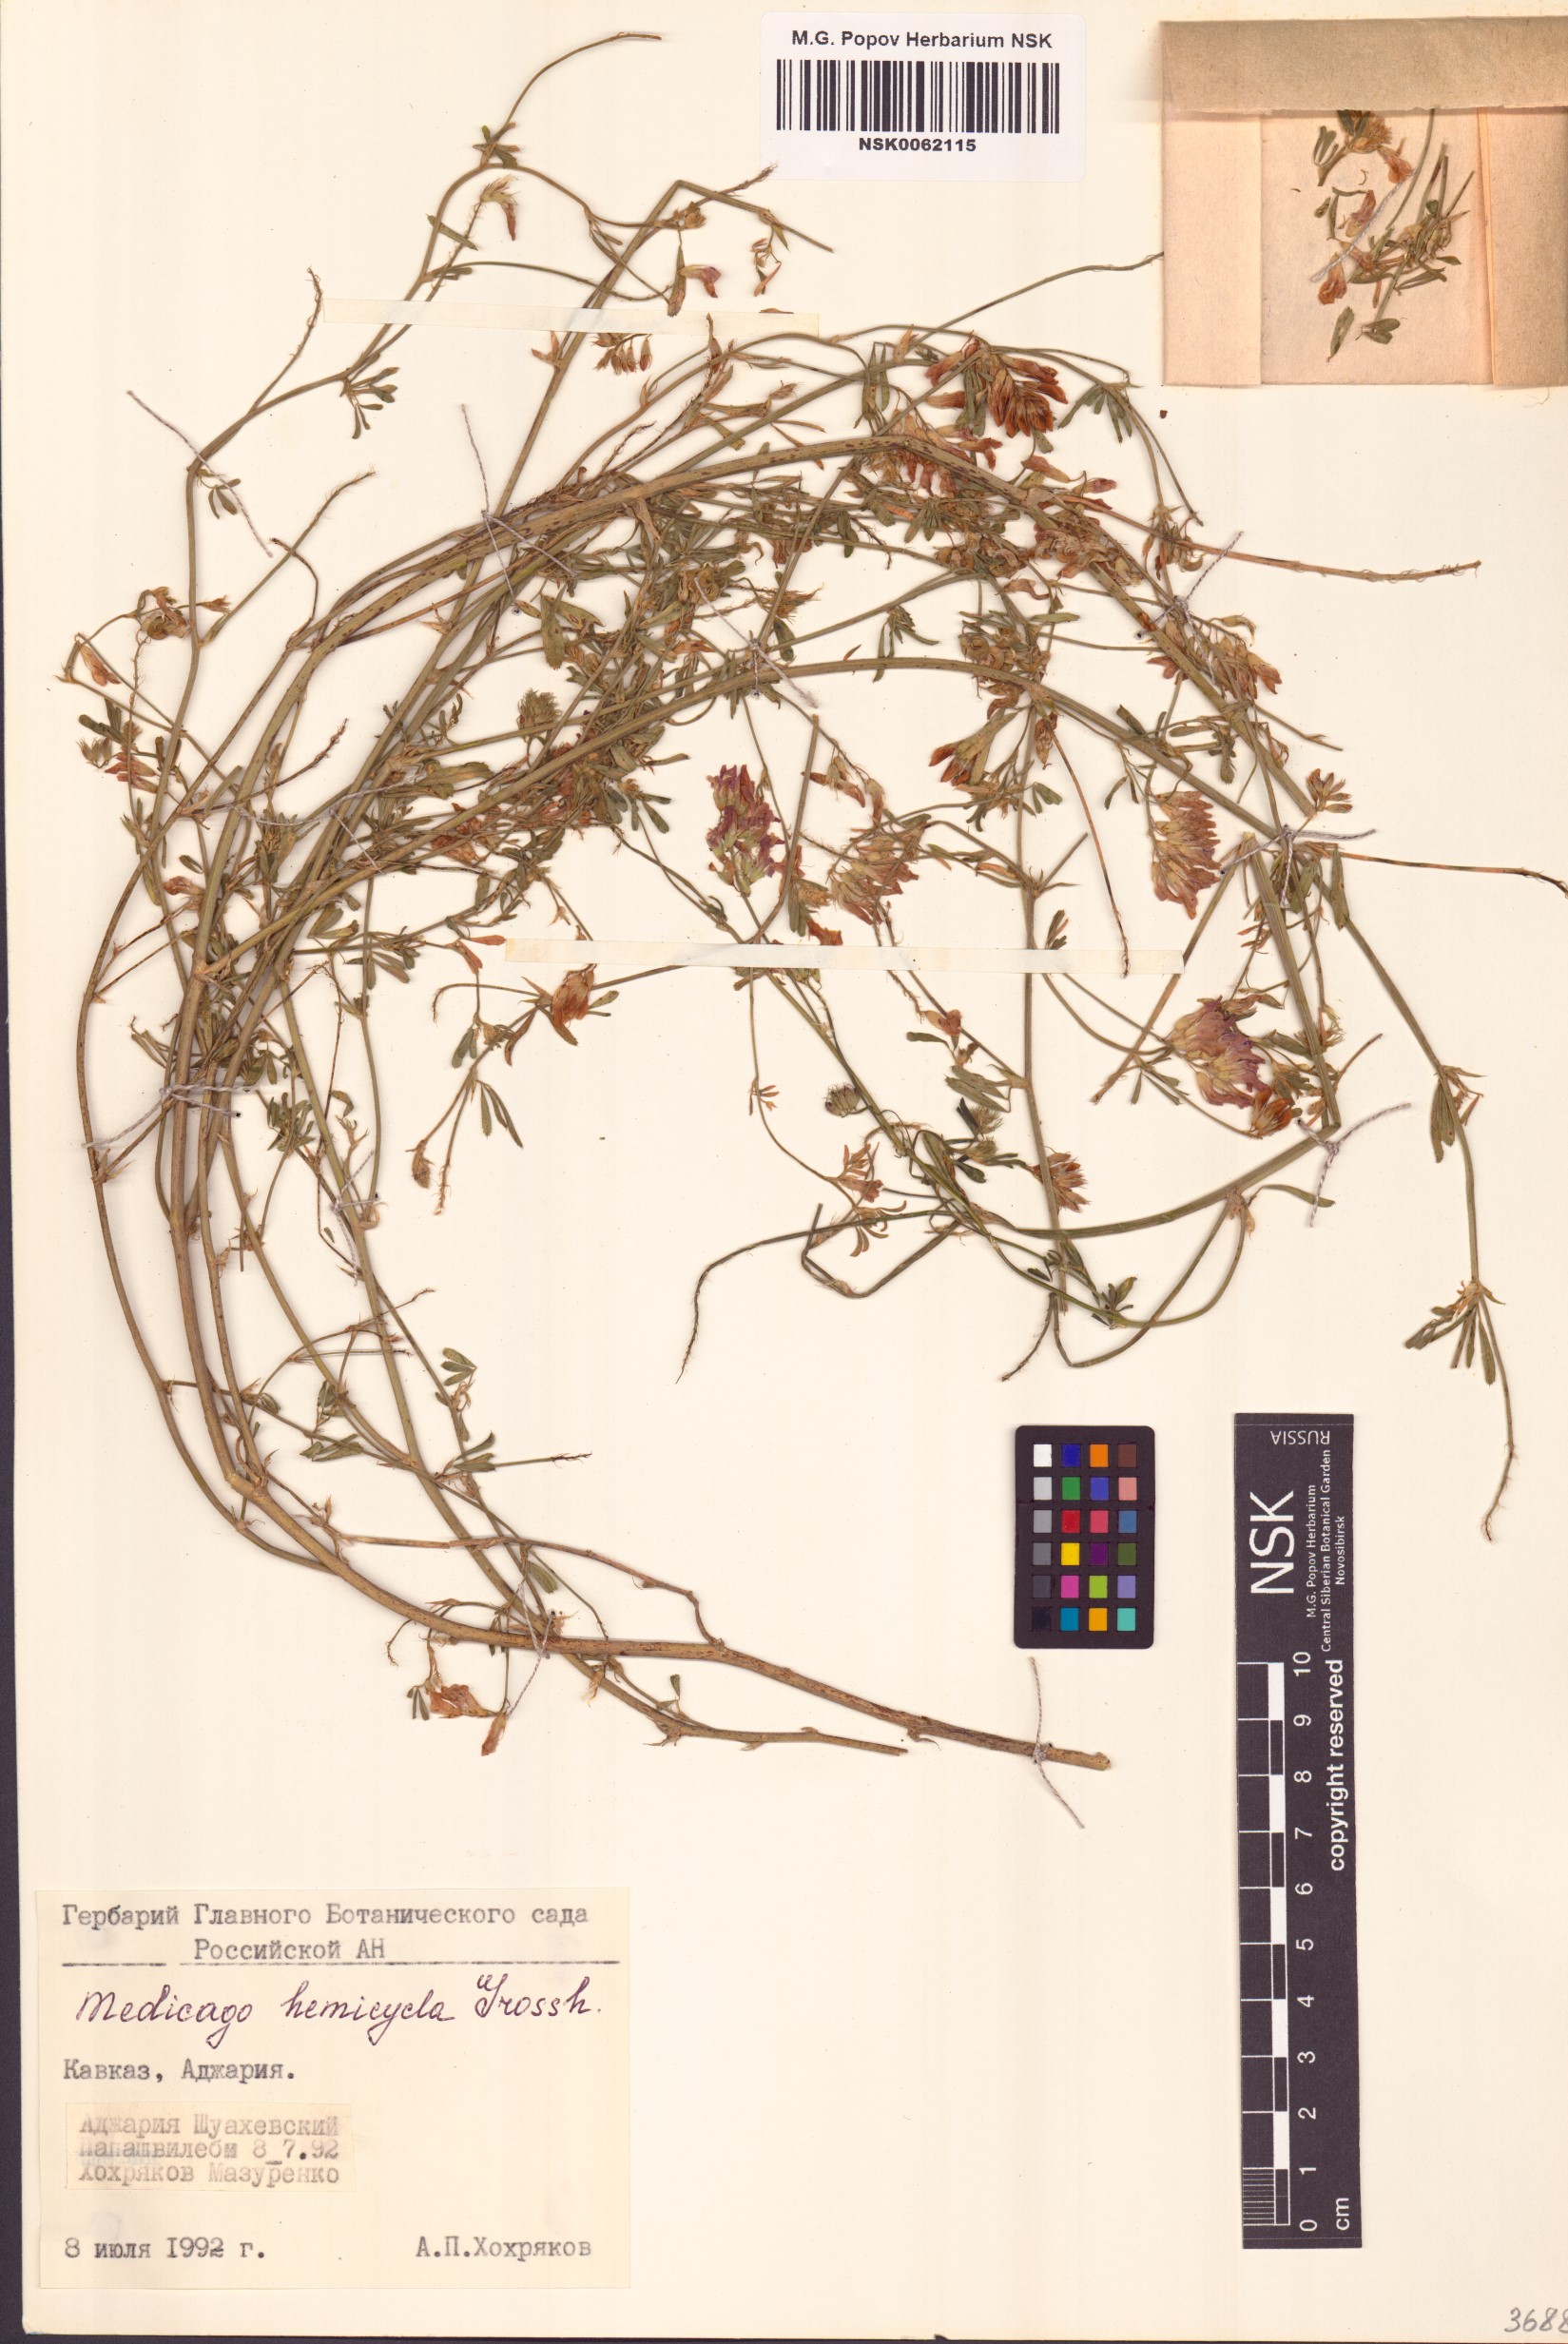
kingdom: Plantae
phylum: Tracheophyta
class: Magnoliopsida
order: Fabales
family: Fabaceae
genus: Medicago
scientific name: Medicago varia
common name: Sand lucerne
